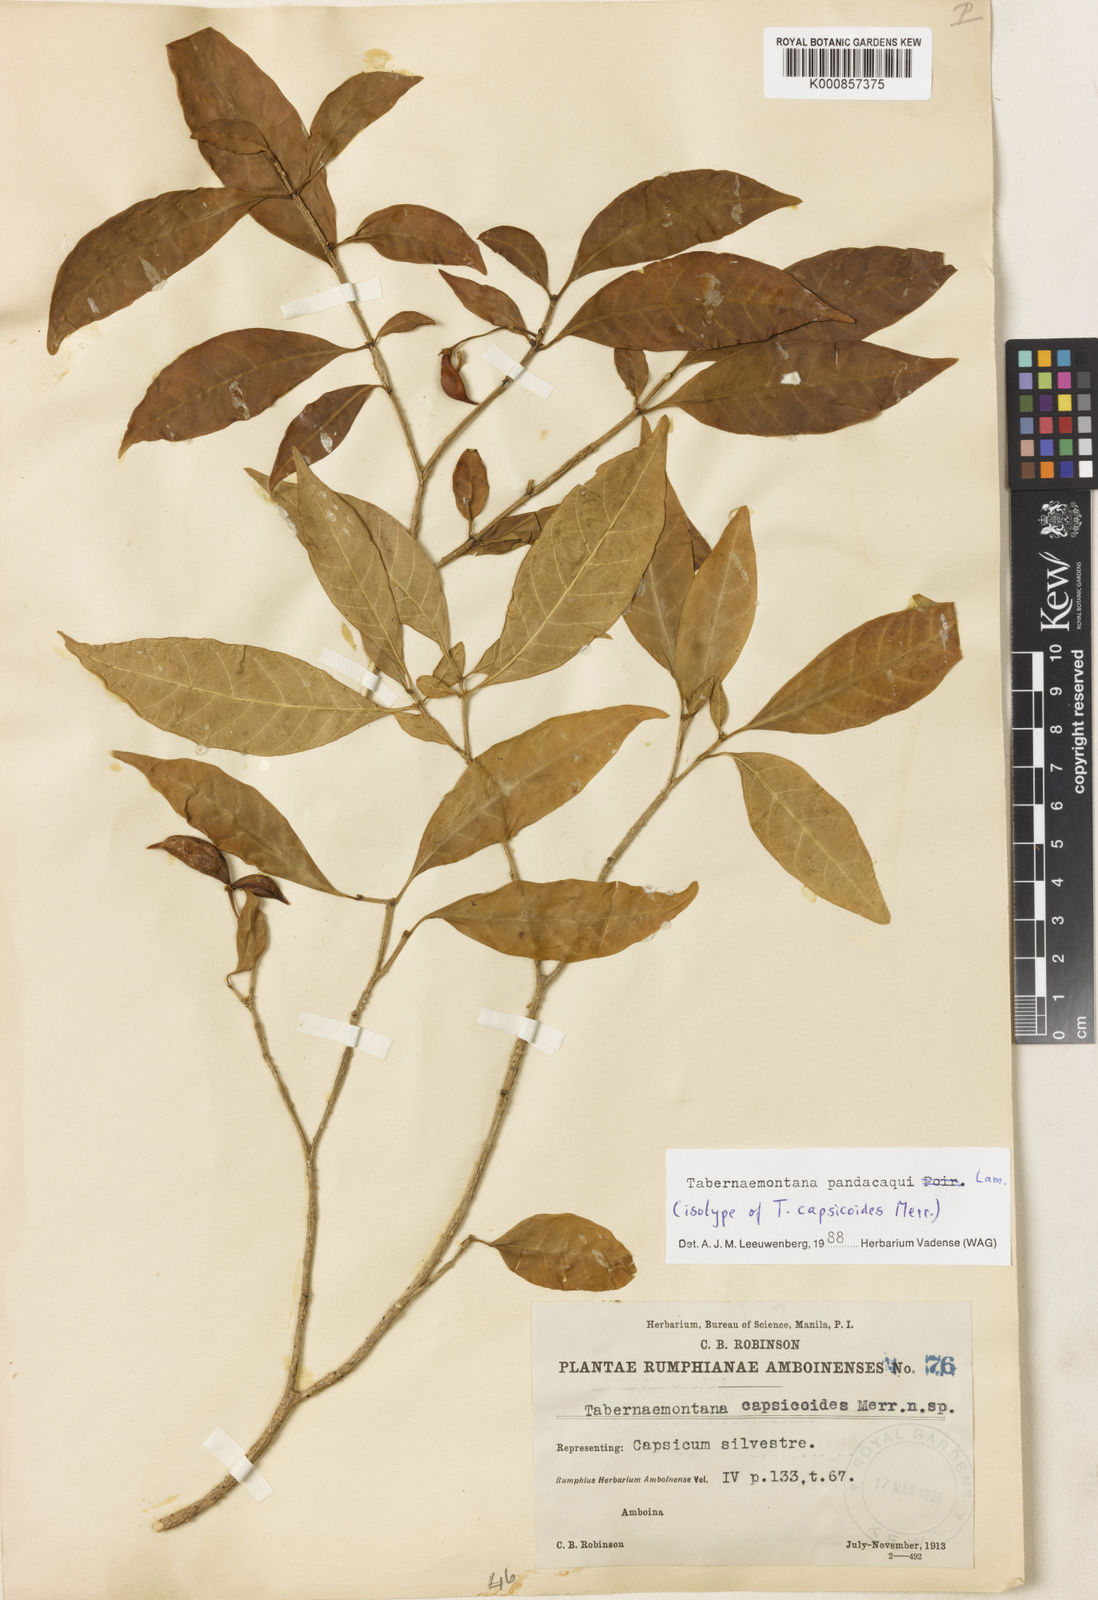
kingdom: Plantae
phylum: Tracheophyta
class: Magnoliopsida
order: Gentianales
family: Apocynaceae
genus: Tabernaemontana
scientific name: Tabernaemontana
